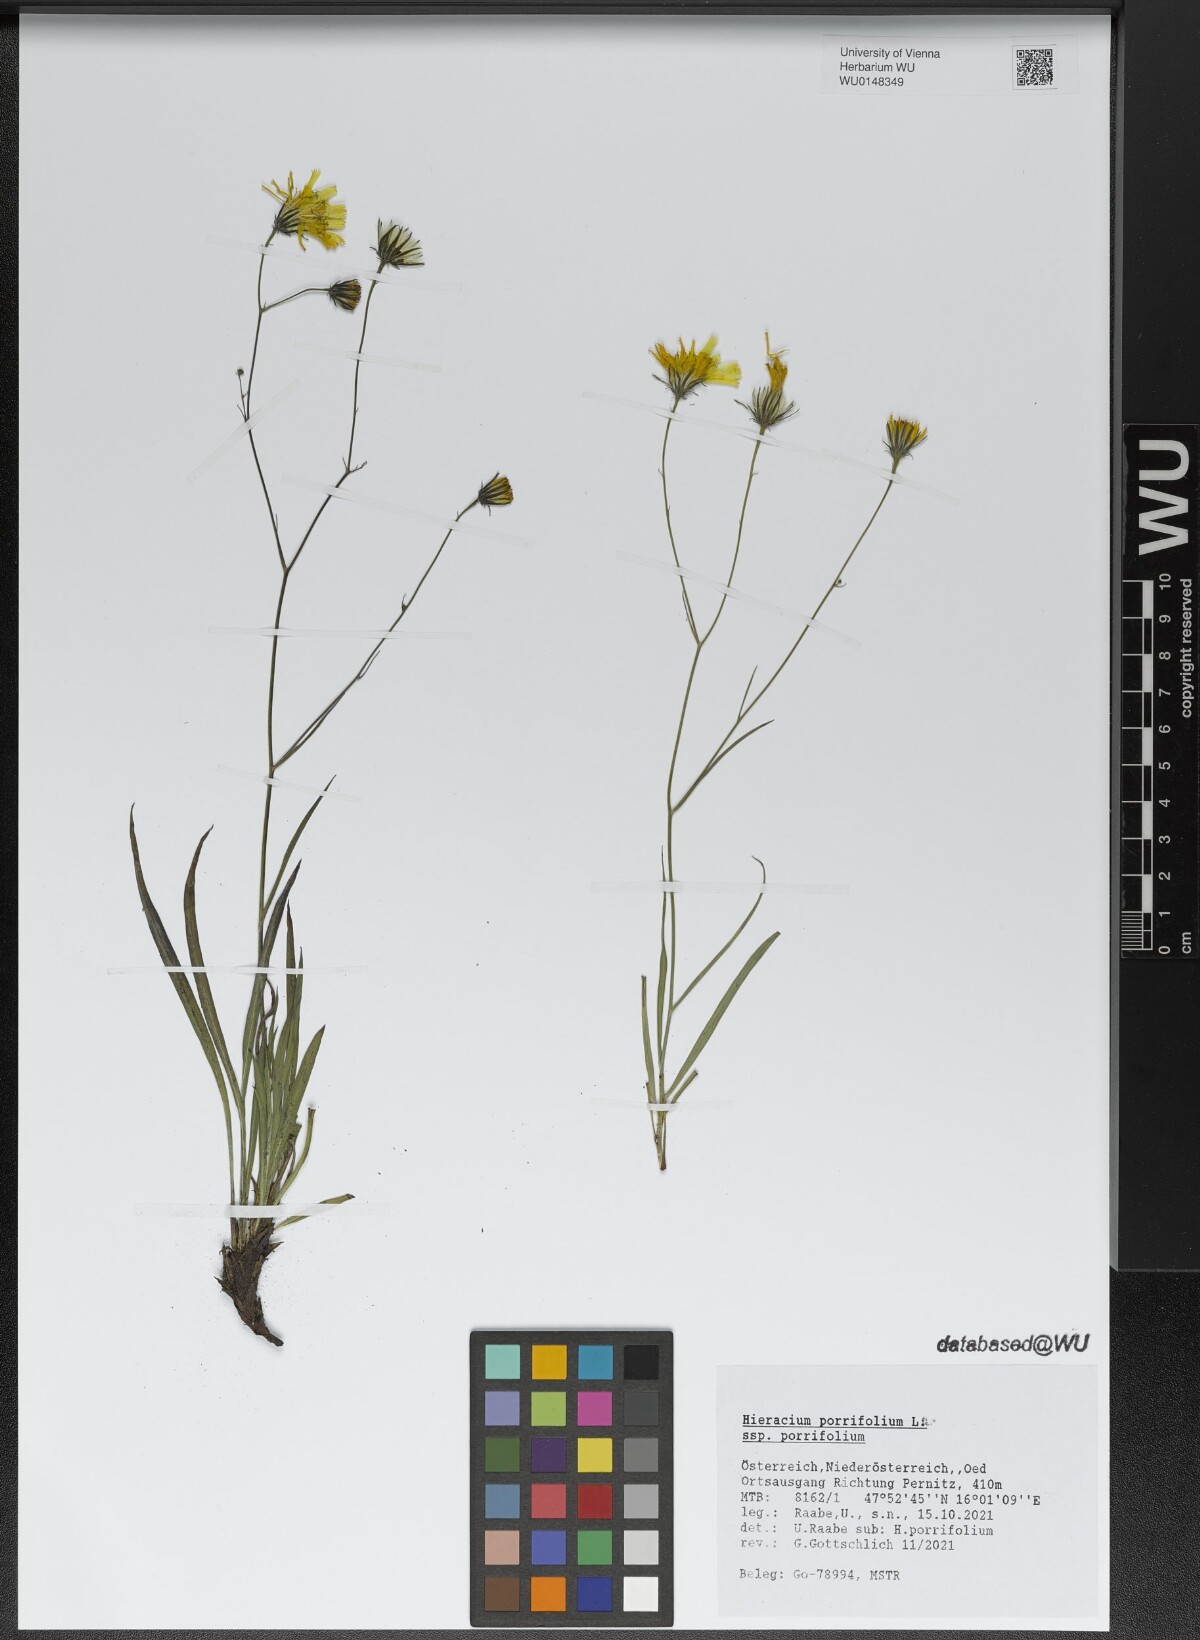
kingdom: Plantae
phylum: Tracheophyta
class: Magnoliopsida
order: Asterales
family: Asteraceae
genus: Hieracium
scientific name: Hieracium porrifolium
